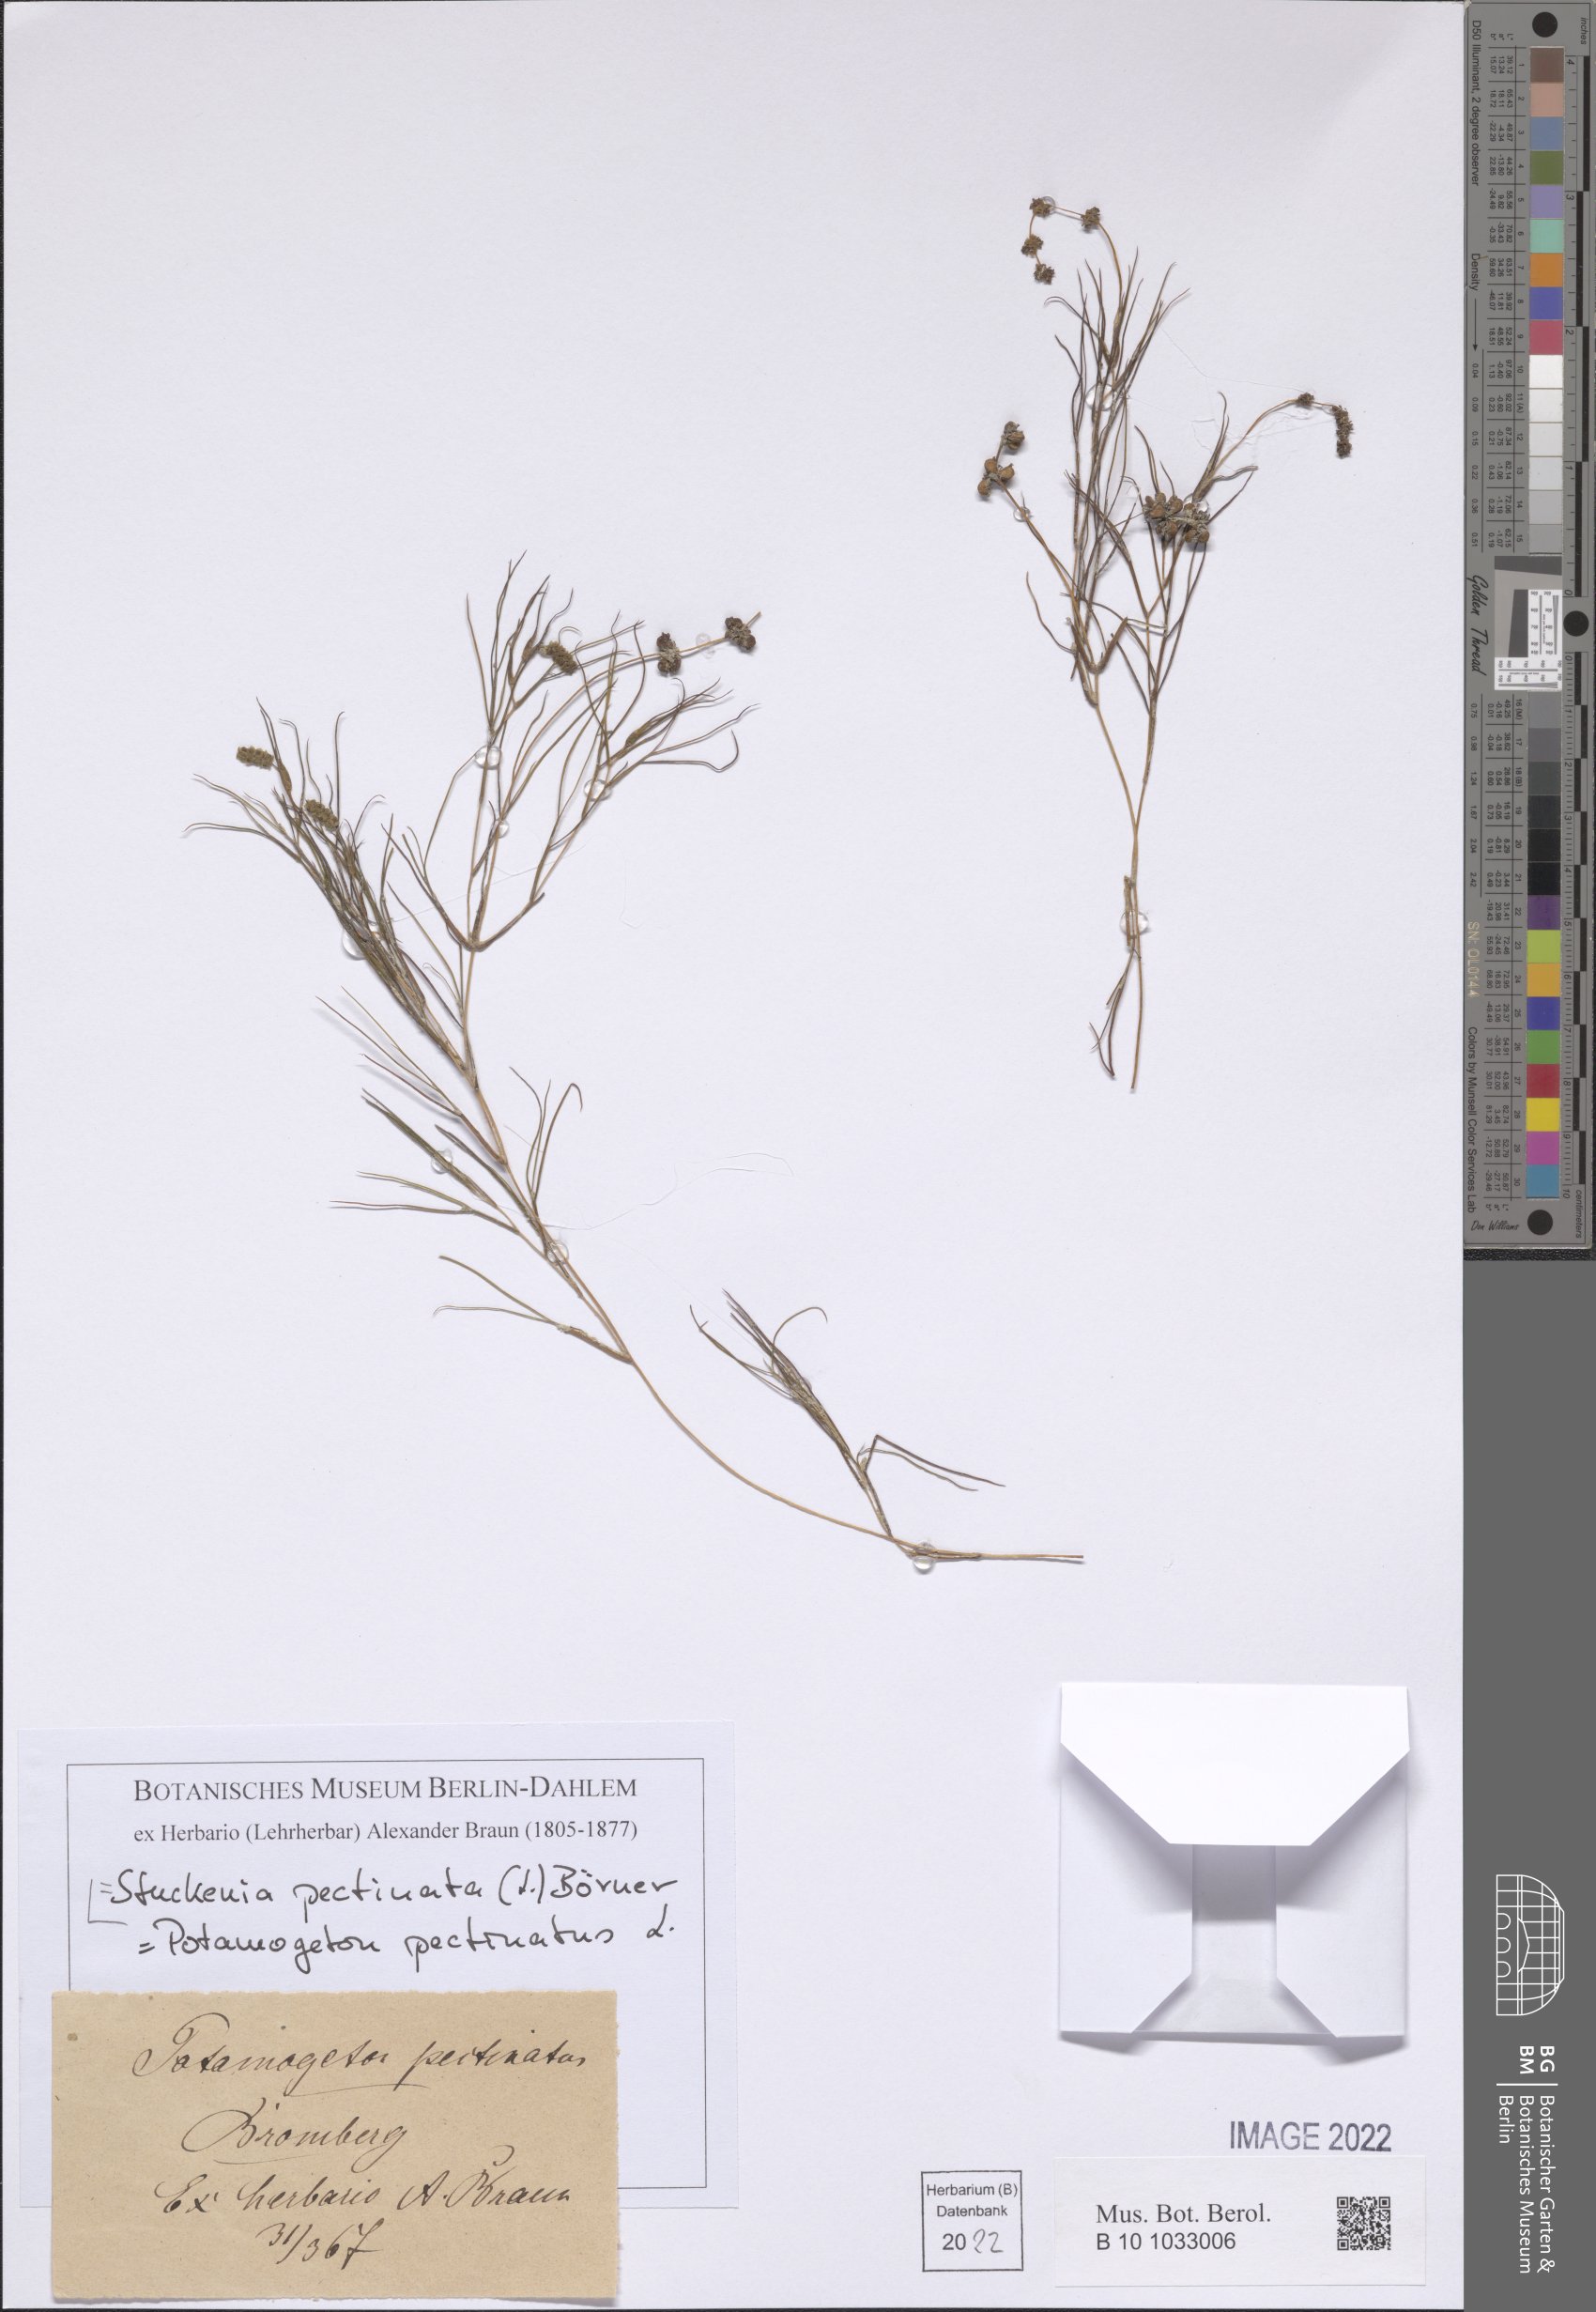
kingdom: Plantae
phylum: Tracheophyta
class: Liliopsida
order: Alismatales
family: Potamogetonaceae
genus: Stuckenia
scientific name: Stuckenia pectinata
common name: Sago pondweed
